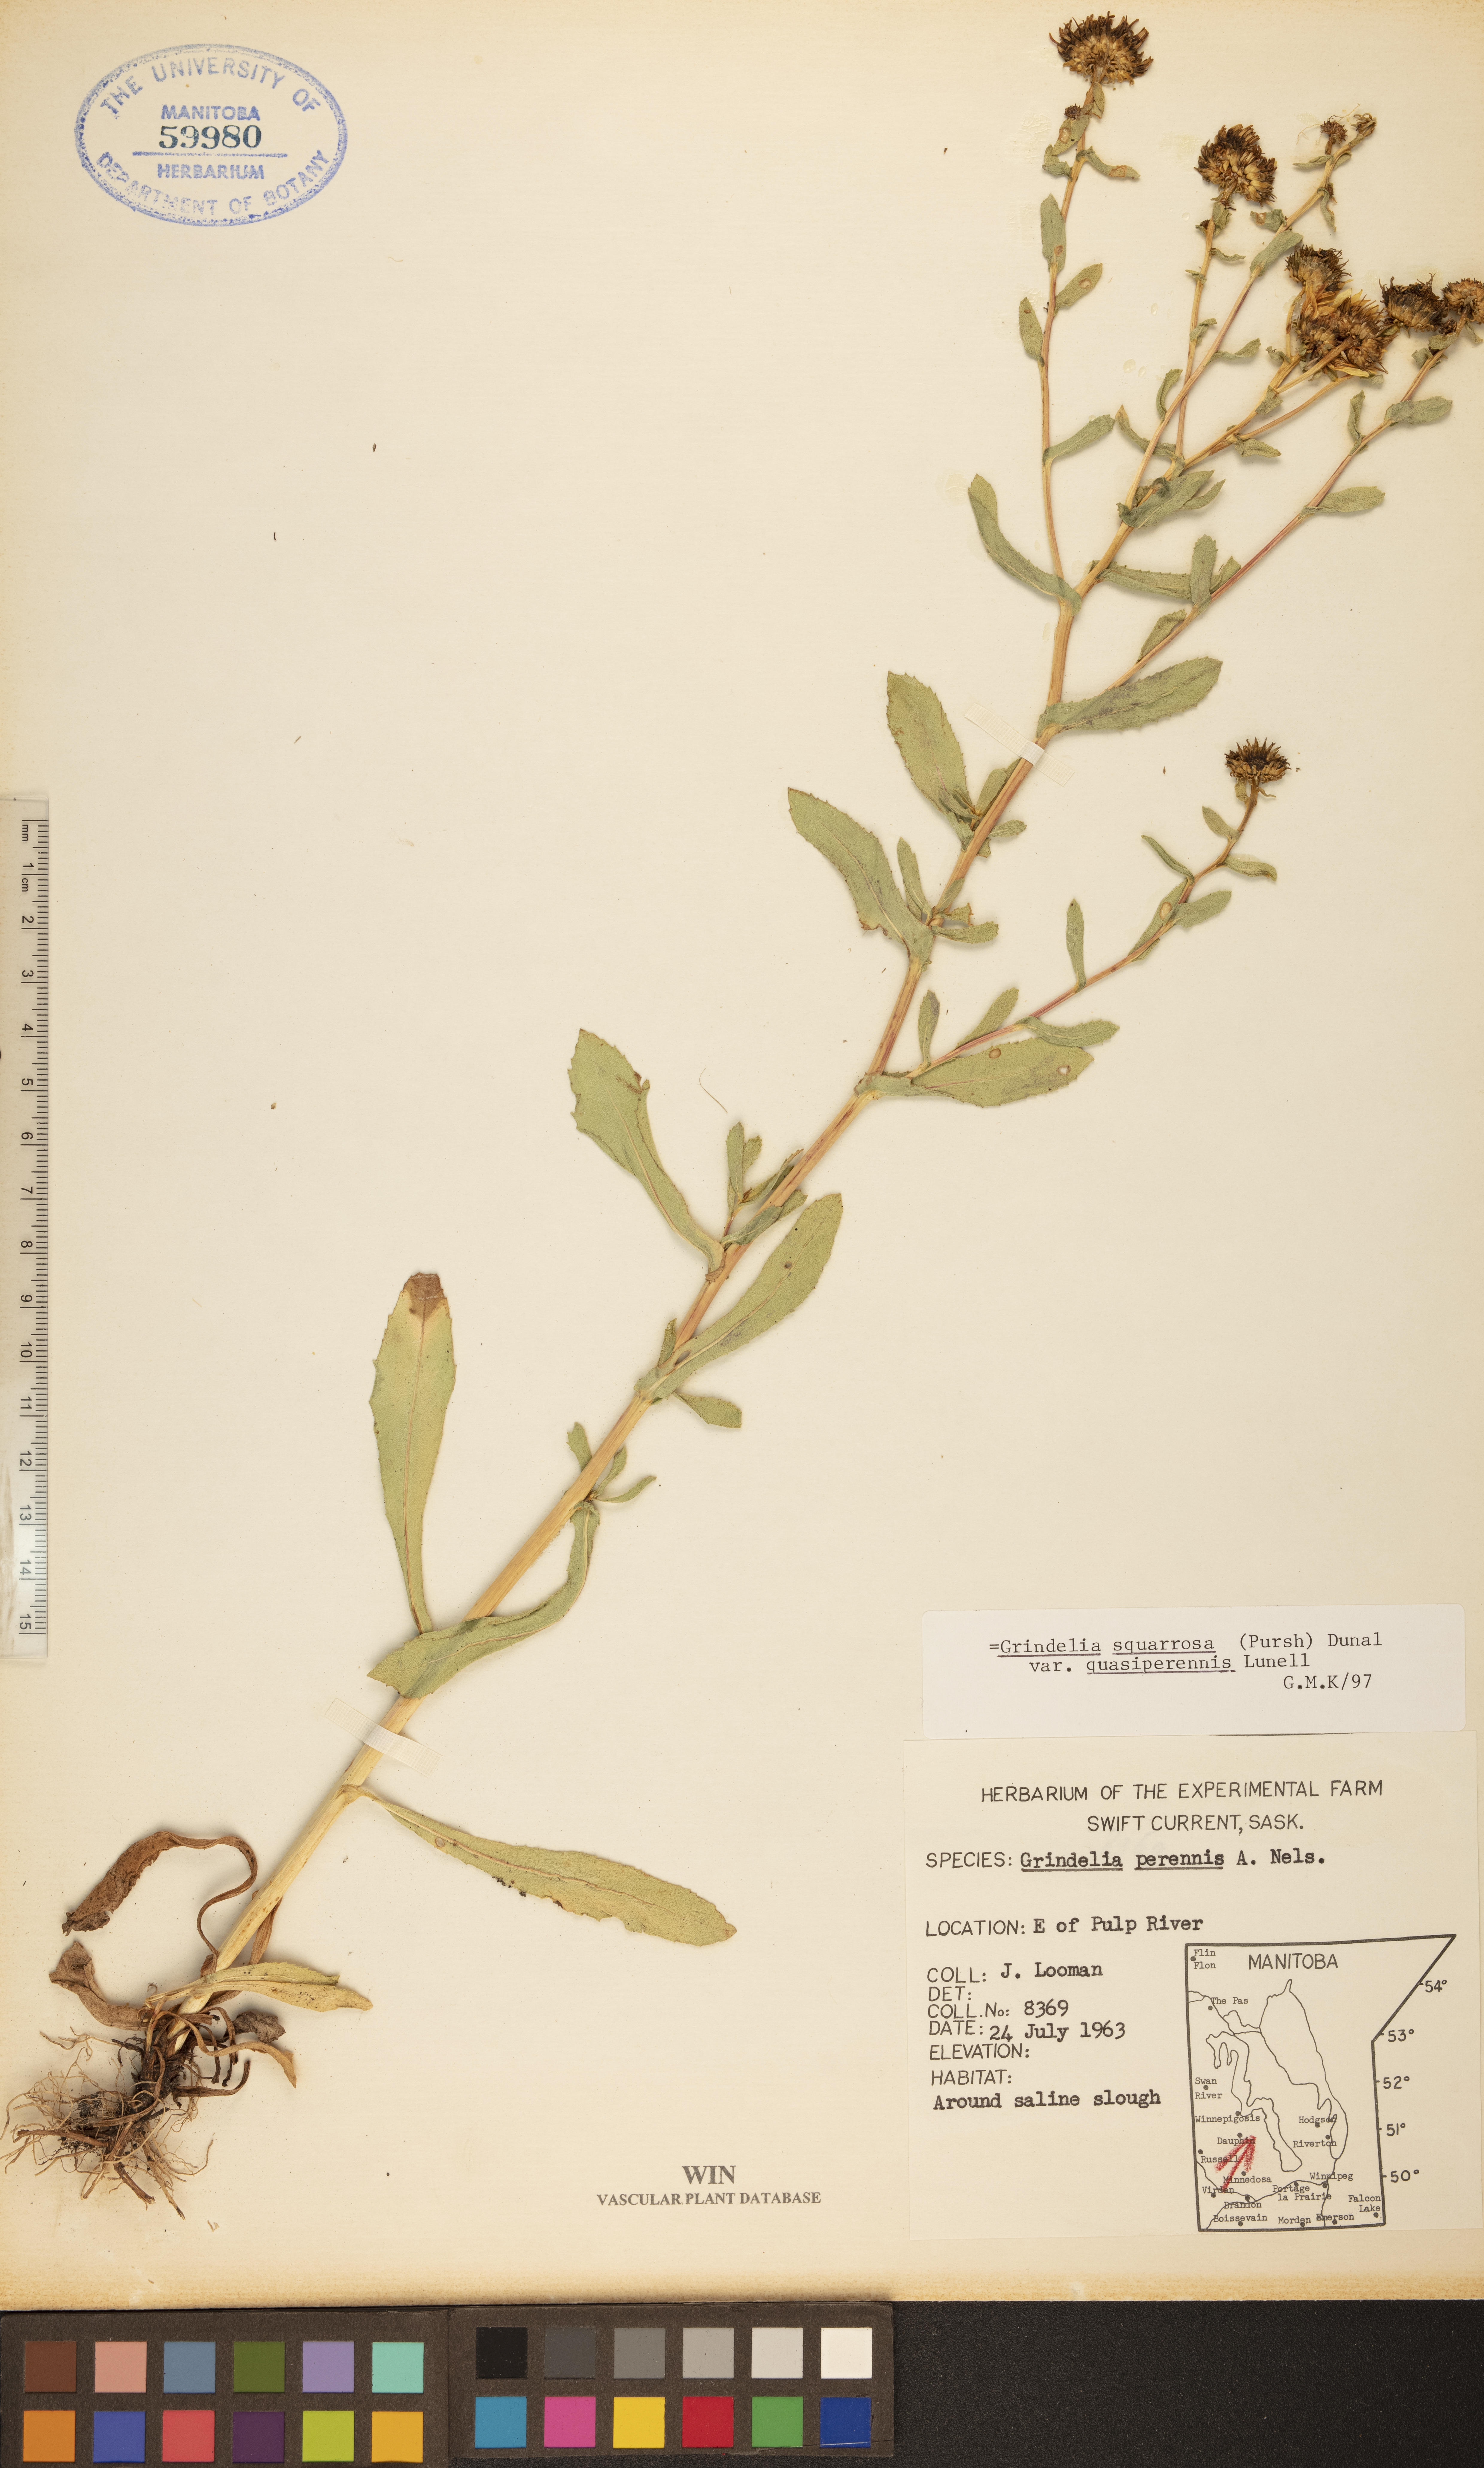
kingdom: Plantae
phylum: Tracheophyta
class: Magnoliopsida
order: Asterales
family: Asteraceae
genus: Grindelia
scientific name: Grindelia hirsutula
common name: Hairy gumweed
